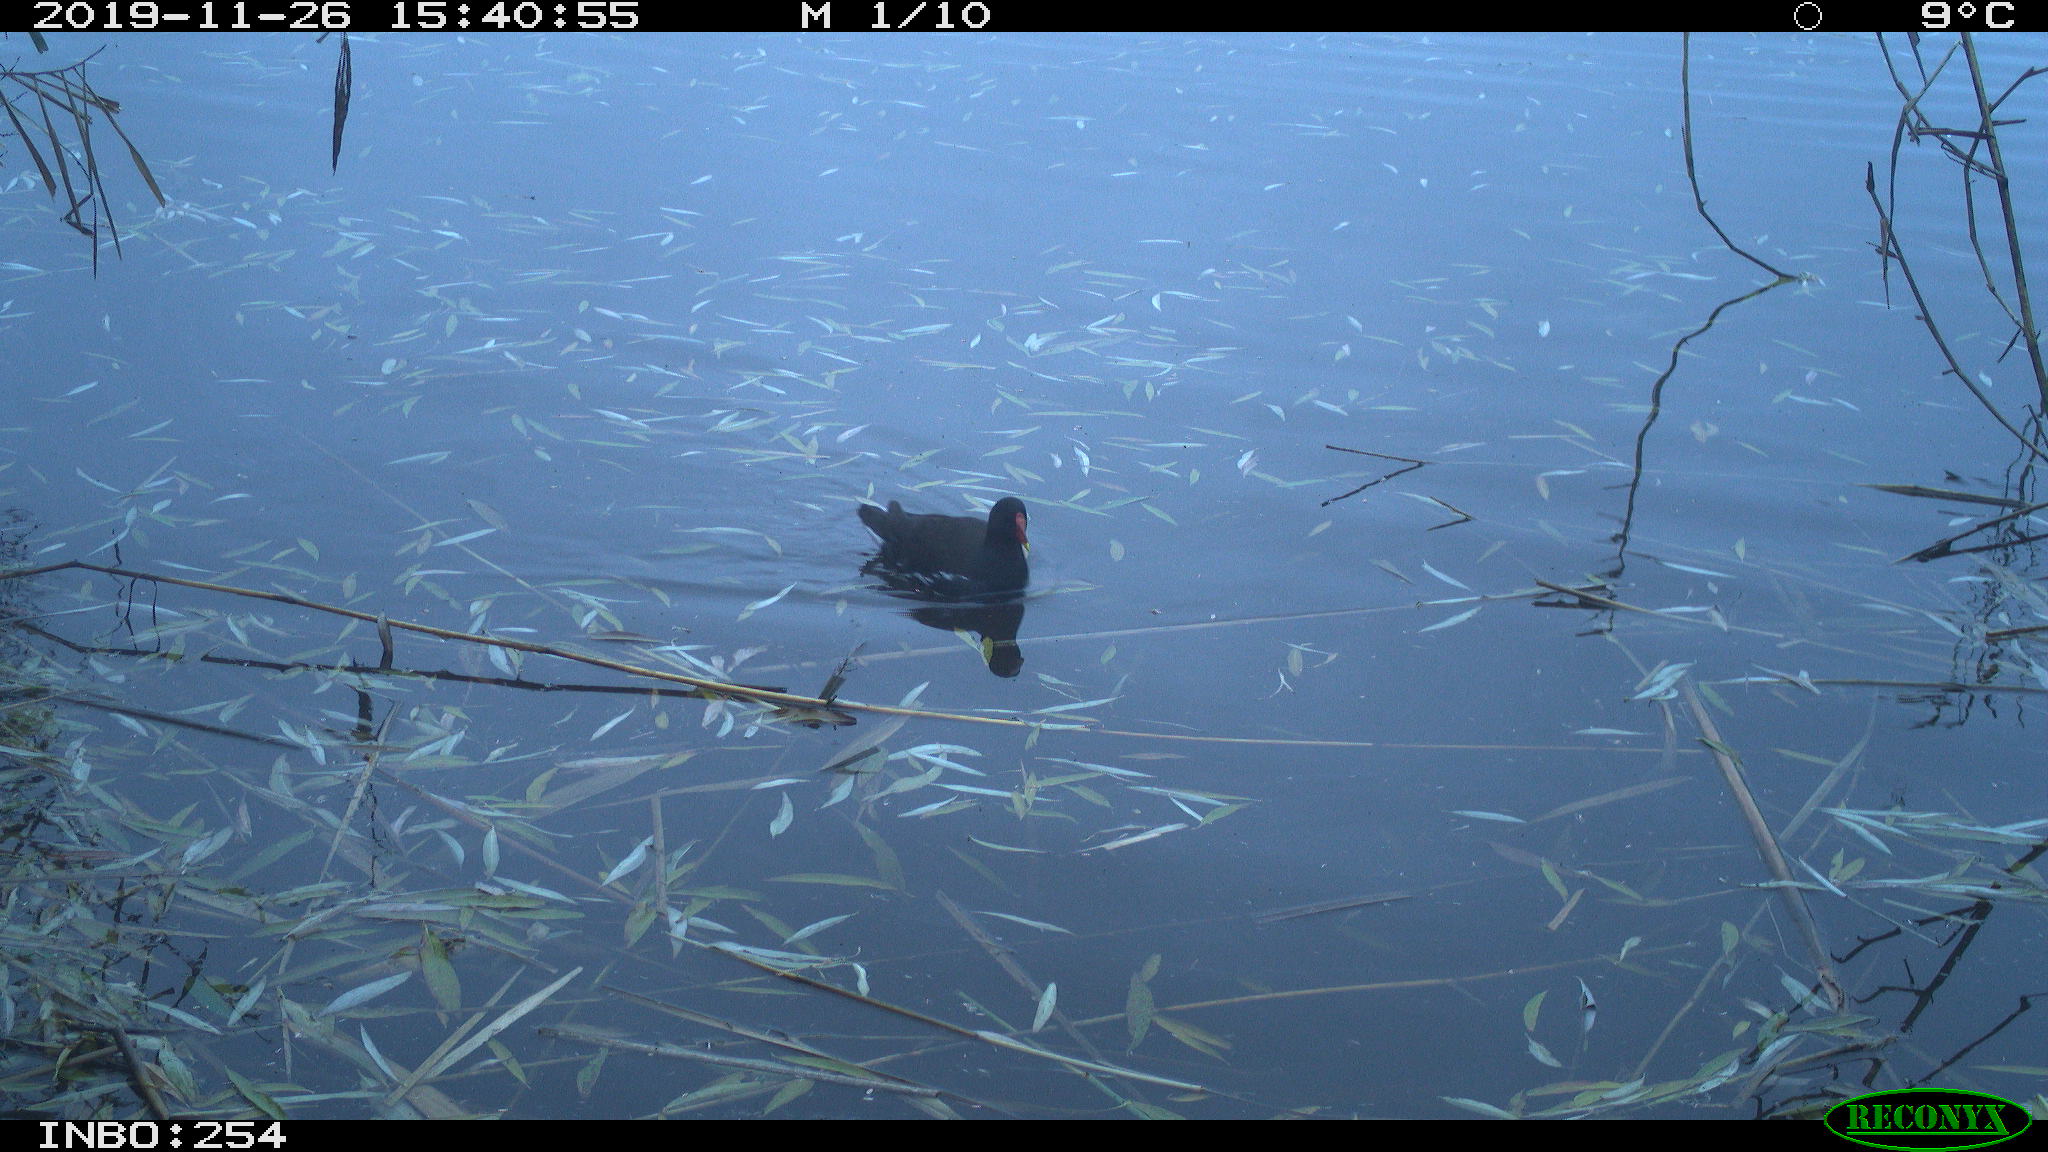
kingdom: Animalia
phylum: Chordata
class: Aves
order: Gruiformes
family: Rallidae
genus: Gallinula
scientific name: Gallinula chloropus
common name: Common moorhen
